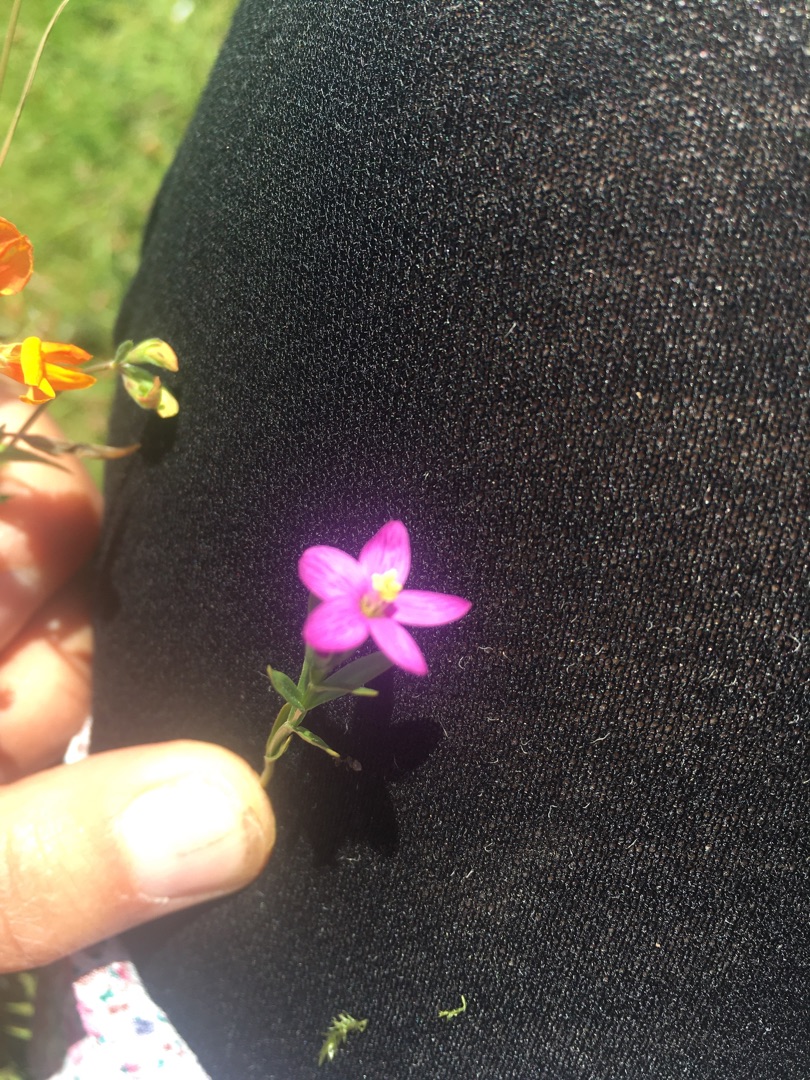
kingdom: Plantae
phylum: Tracheophyta
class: Magnoliopsida
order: Gentianales
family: Gentianaceae
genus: Centaurium
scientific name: Centaurium littorale
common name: Strand-tusindgylden
